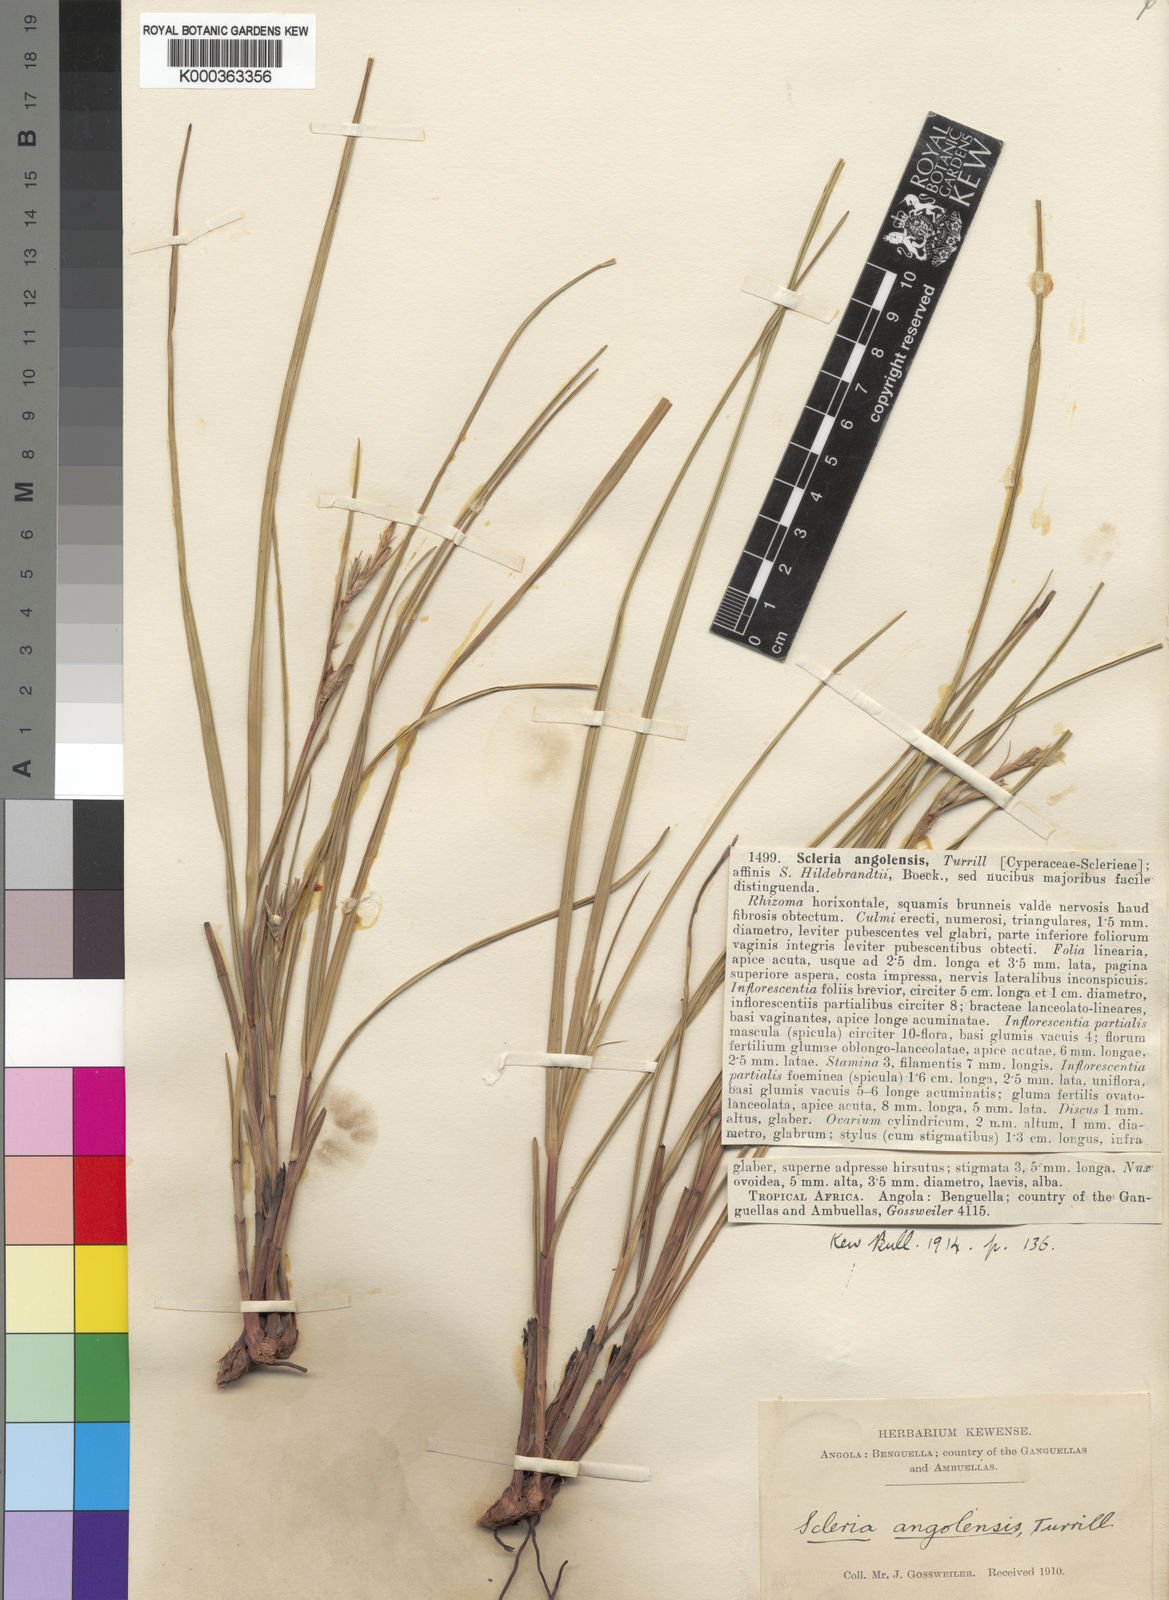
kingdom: Plantae
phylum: Tracheophyta
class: Liliopsida
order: Poales
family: Cyperaceae
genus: Scleria
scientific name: Scleria induta
